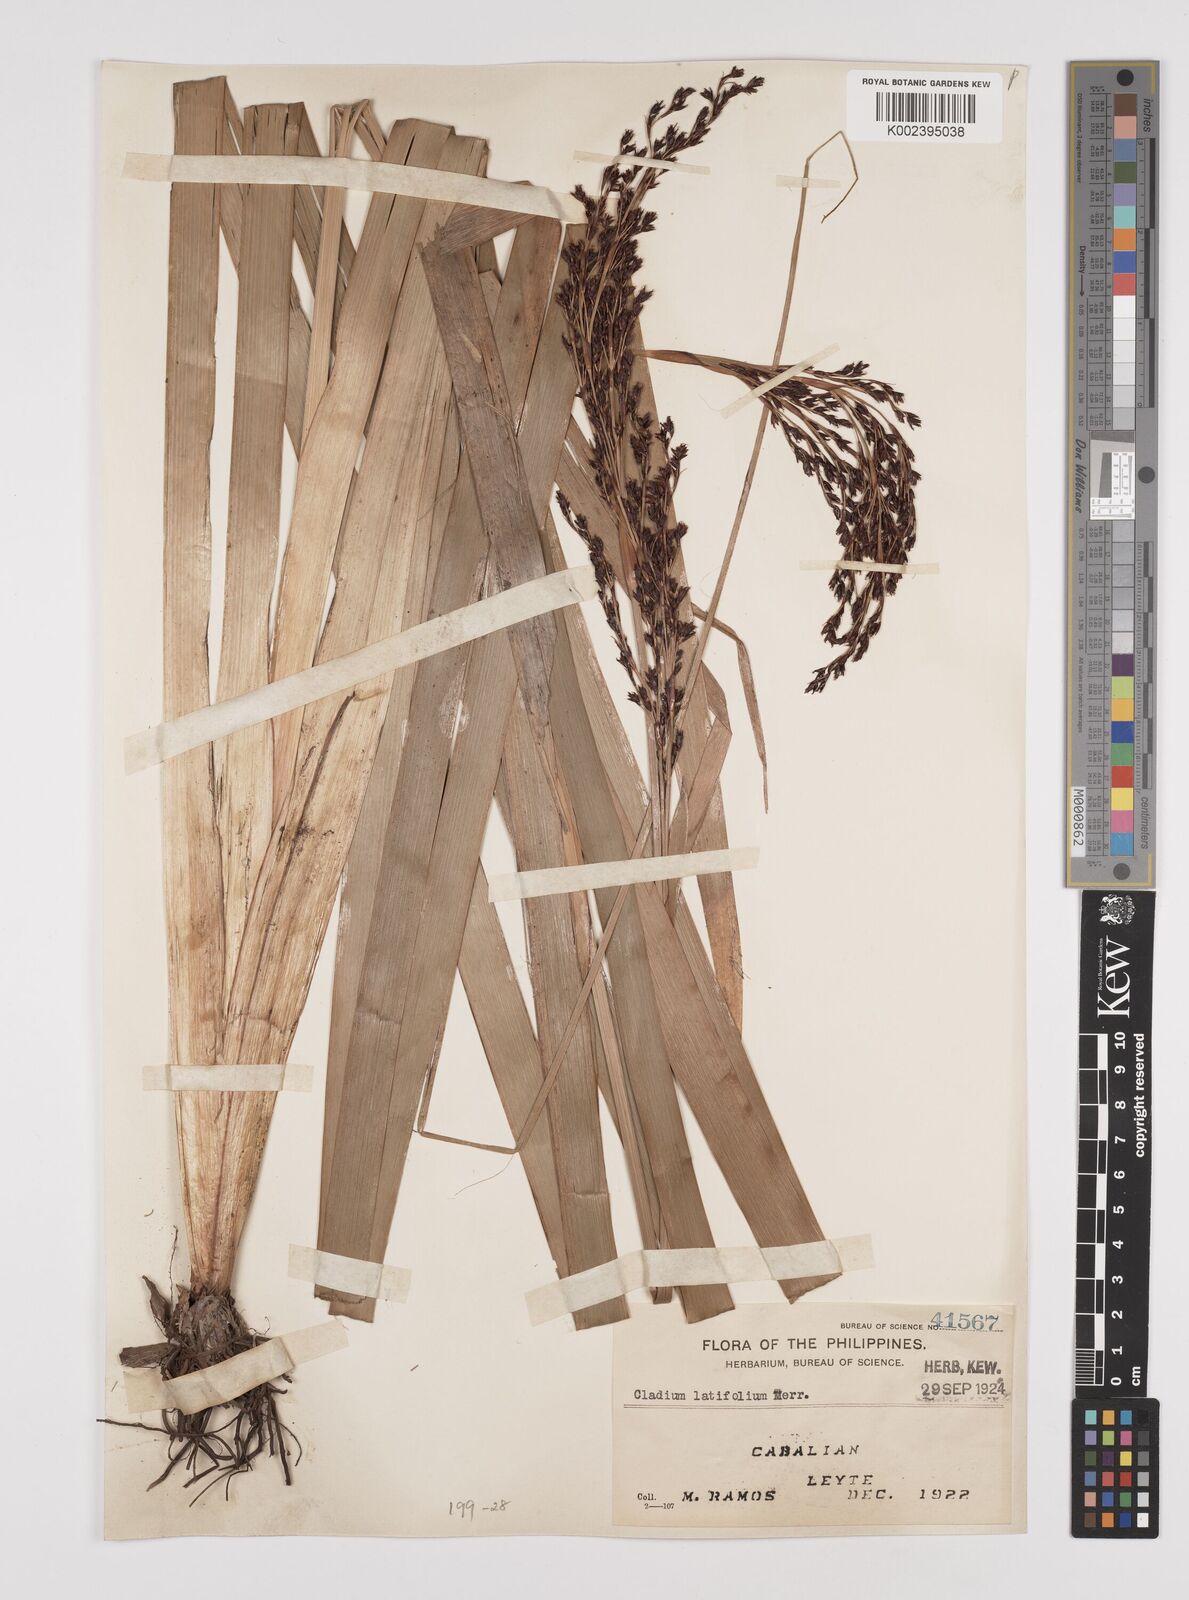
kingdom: Plantae
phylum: Tracheophyta
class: Liliopsida
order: Poales
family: Cyperaceae
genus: Machaerina
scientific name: Machaerina sinclairii
